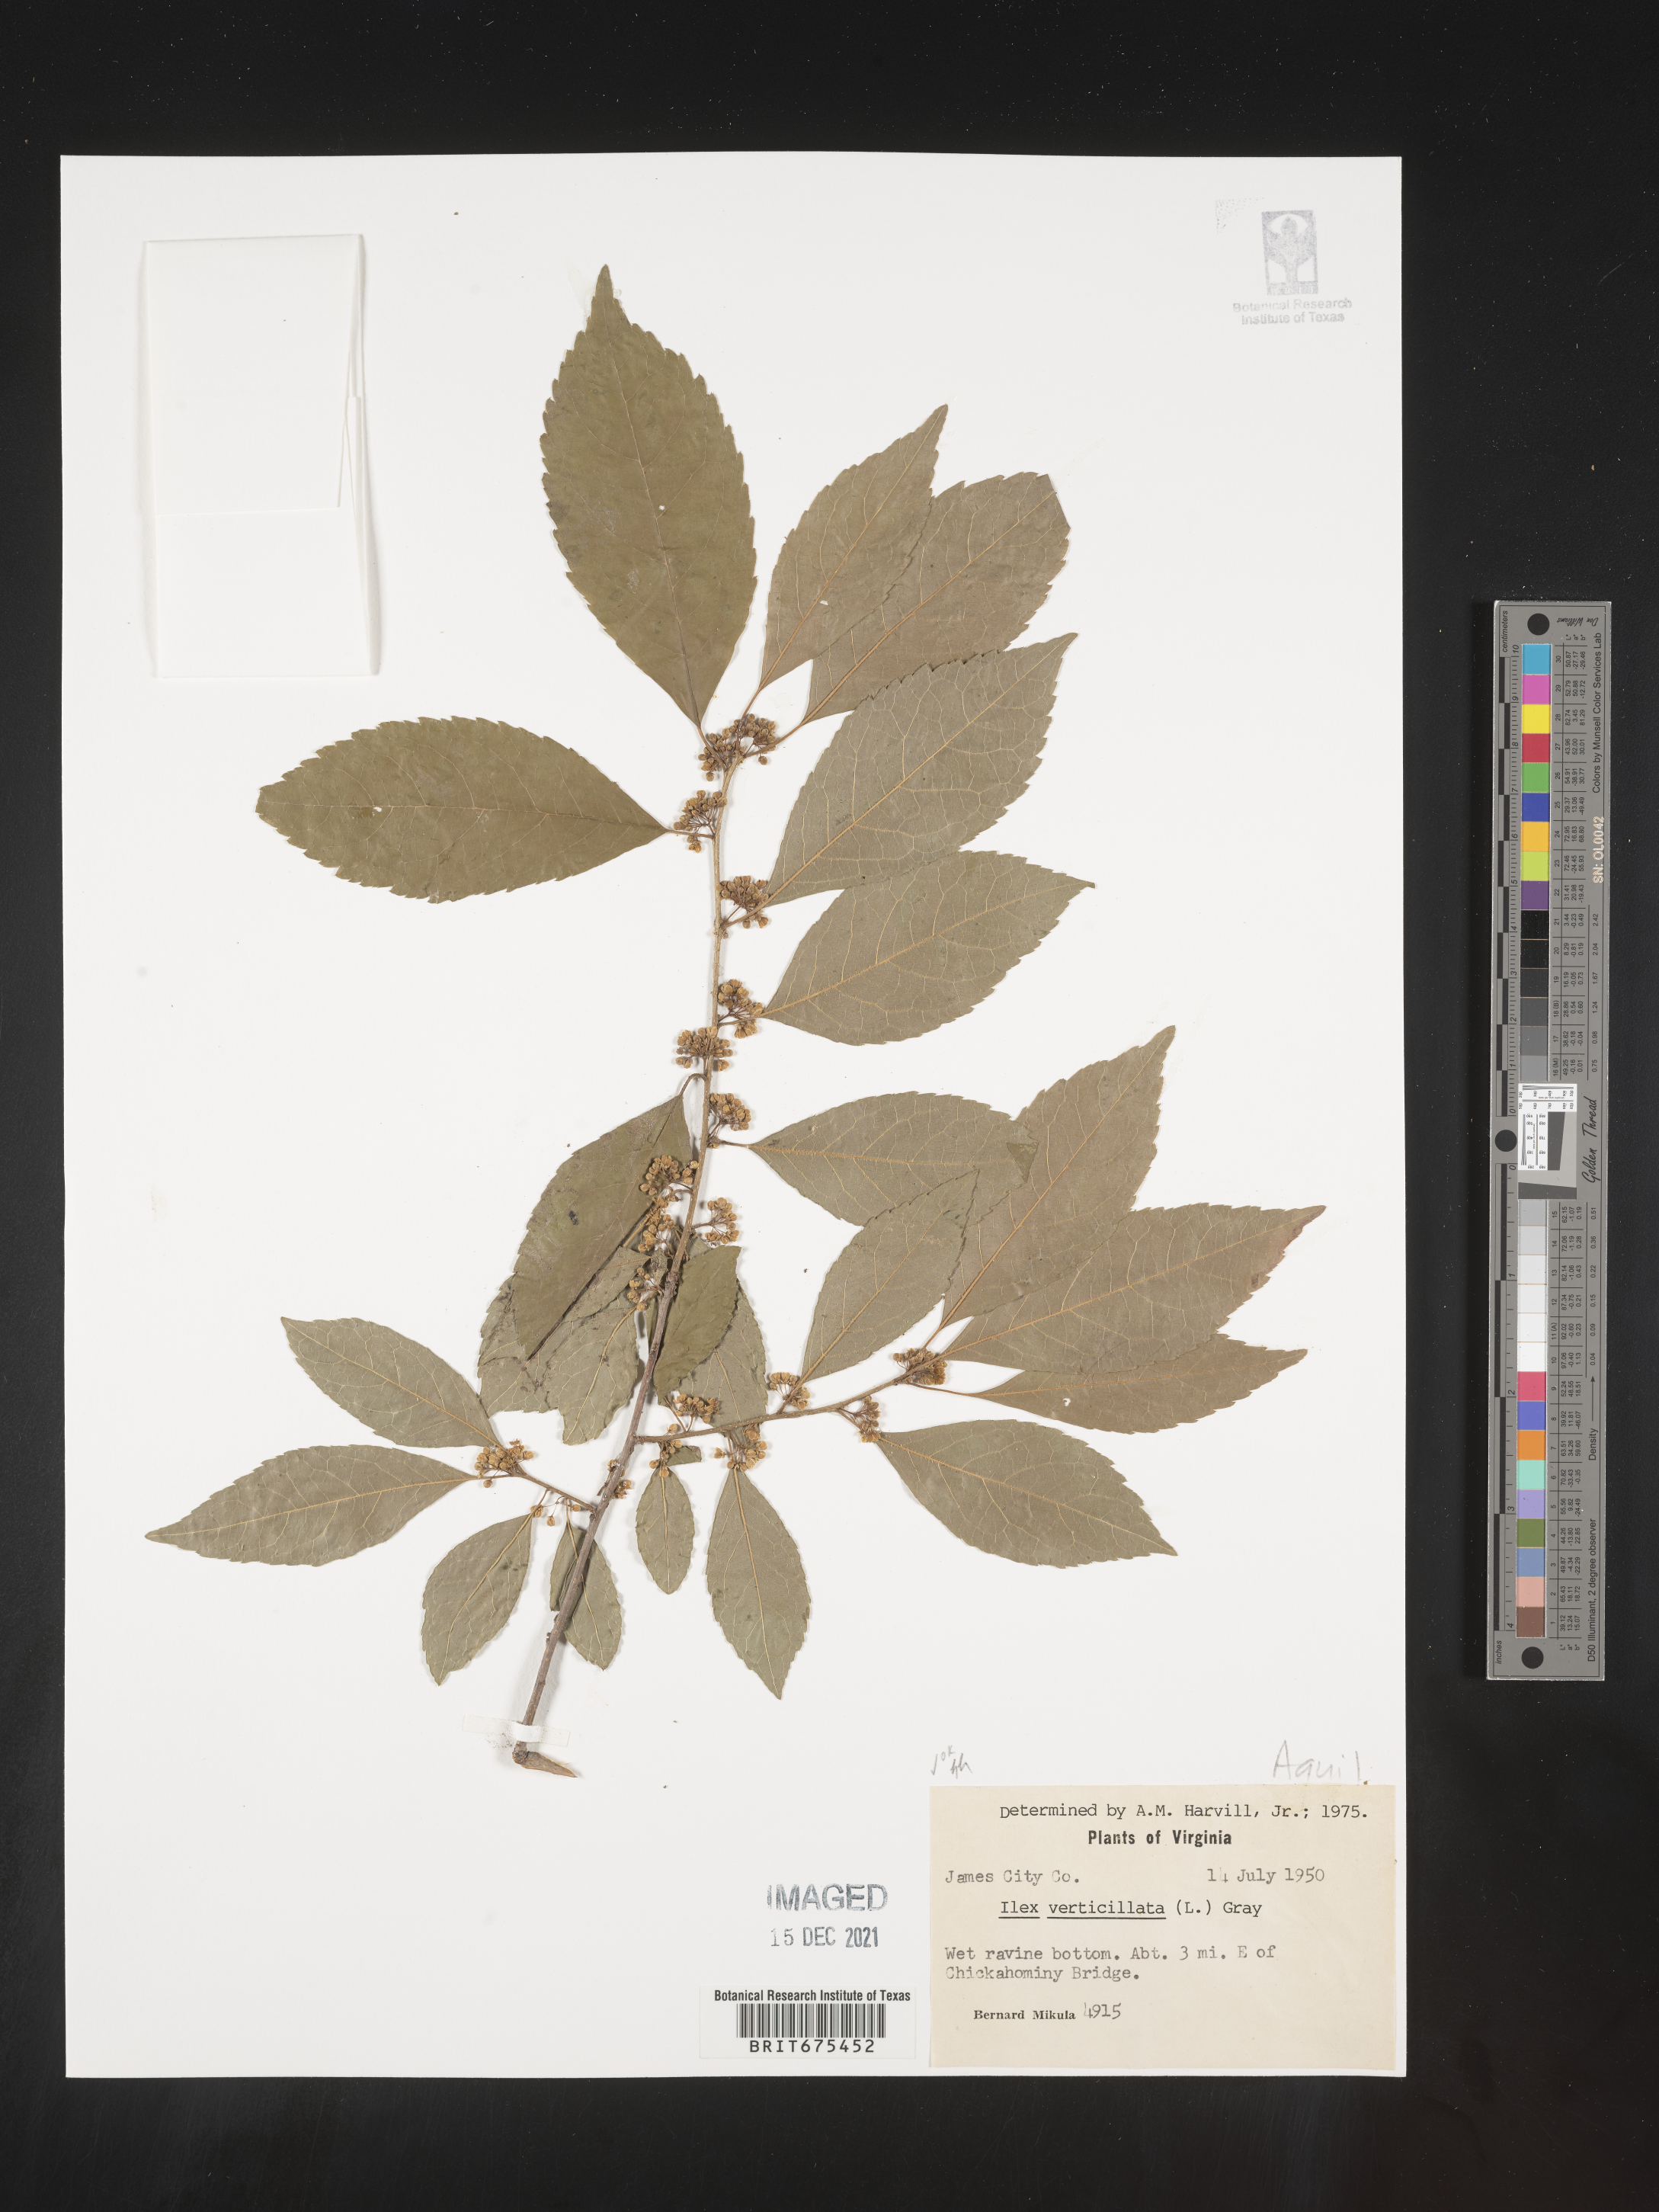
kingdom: Plantae
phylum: Tracheophyta
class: Magnoliopsida
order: Aquifoliales
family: Aquifoliaceae
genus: Ilex
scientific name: Ilex verticillata
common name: Virginia winterberry
